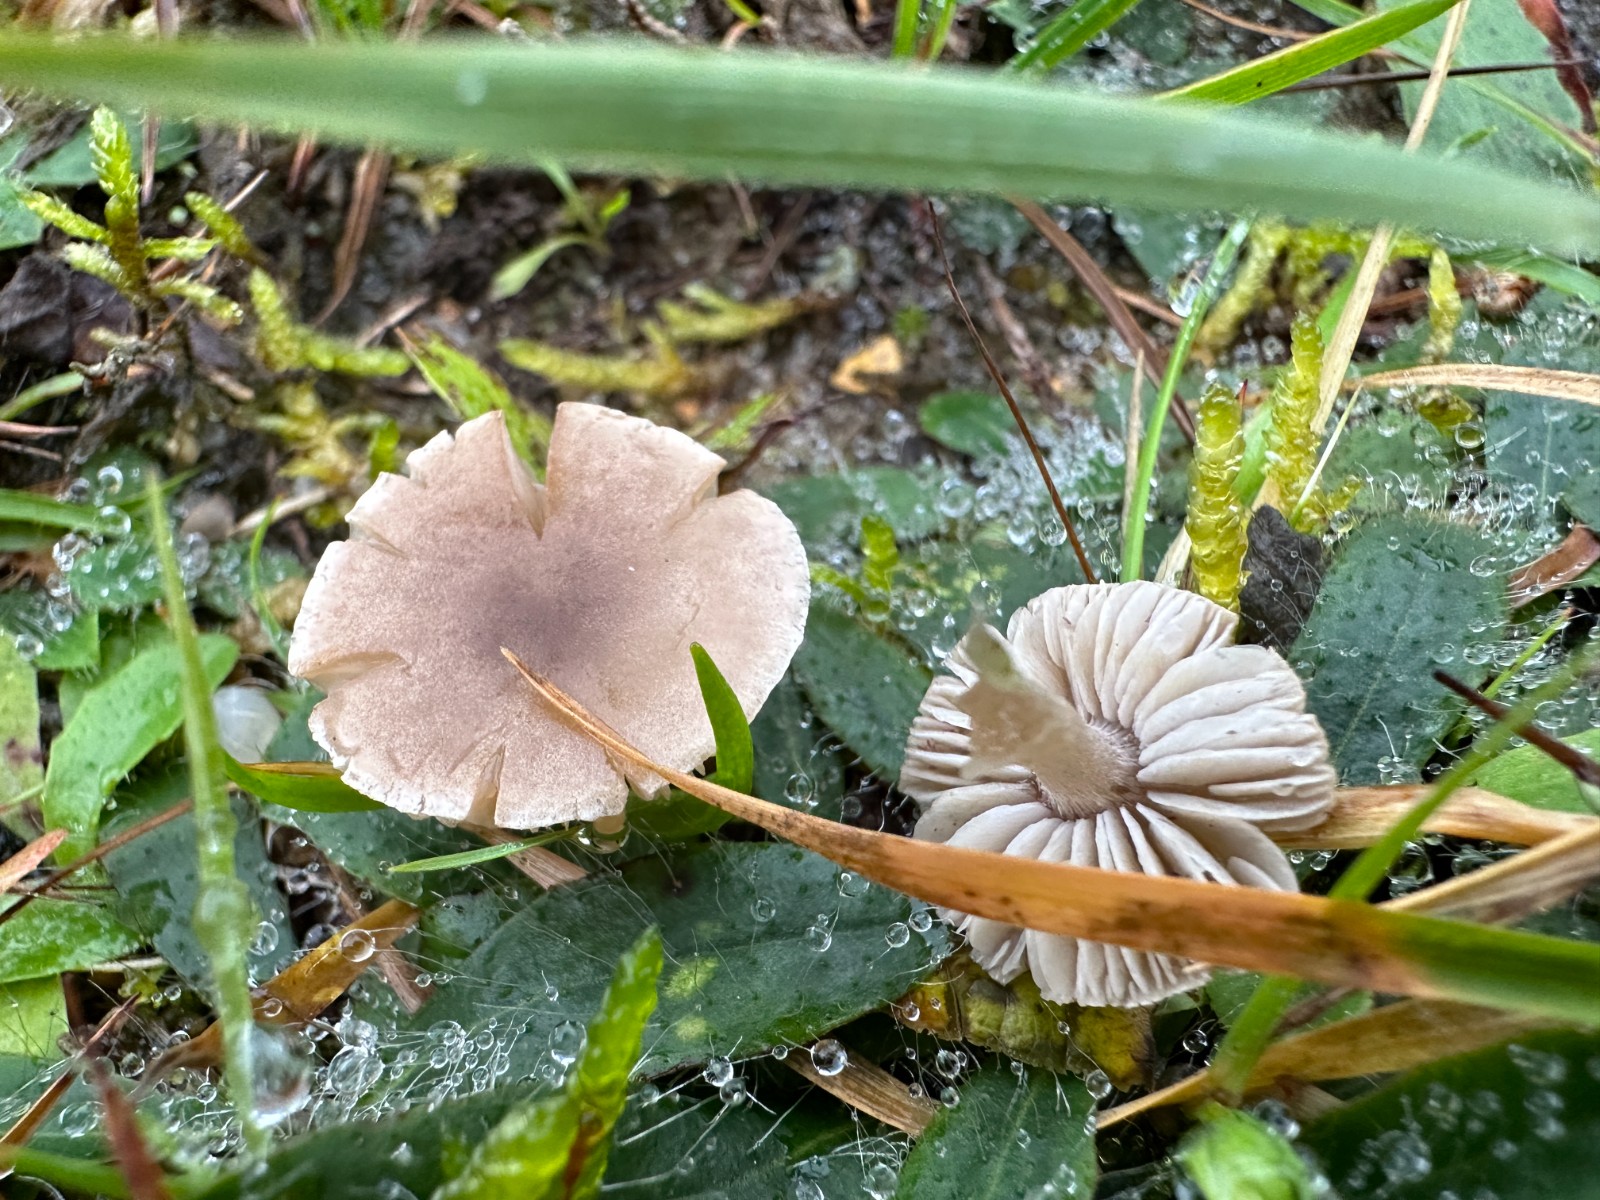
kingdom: Fungi
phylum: Basidiomycota
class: Agaricomycetes
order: Agaricales
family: Tricholomataceae
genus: Dermoloma
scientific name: Dermoloma cuneifolium
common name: eng-nonnehat
